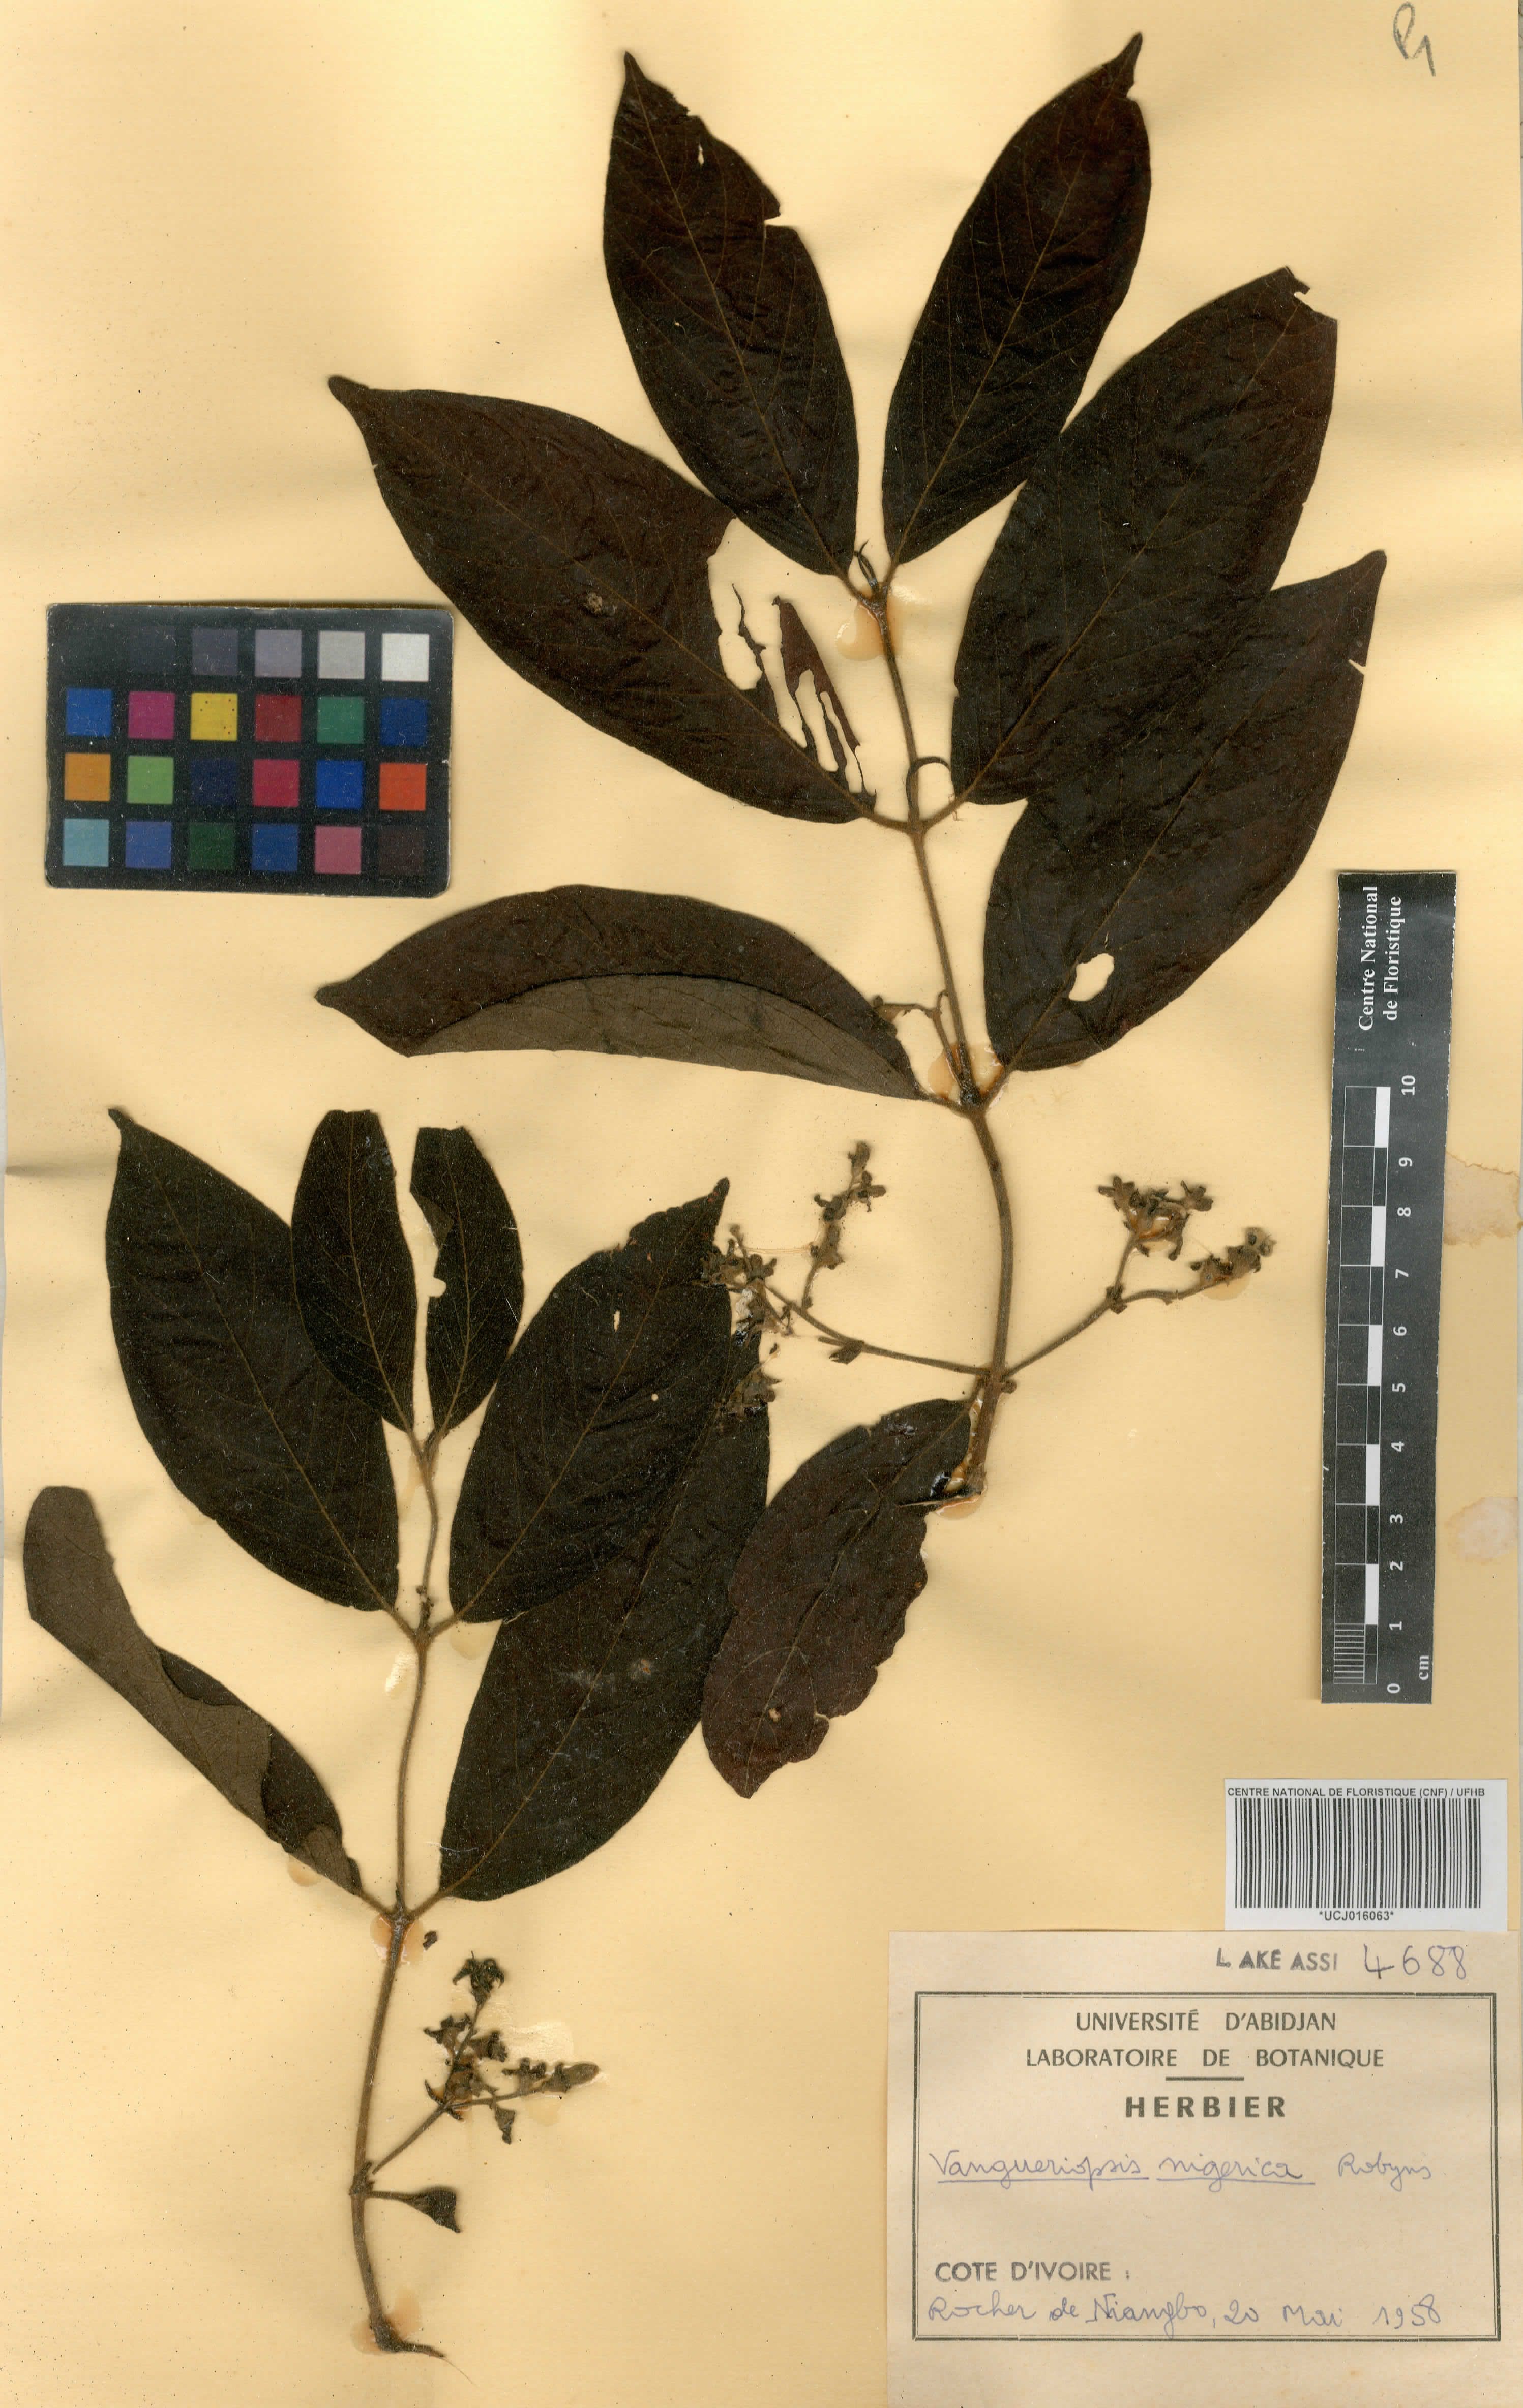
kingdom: Plantae
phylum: Tracheophyta
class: Magnoliopsida
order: Gentianales
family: Rubiaceae
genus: Vangueriella
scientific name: Vangueriella nigerica
